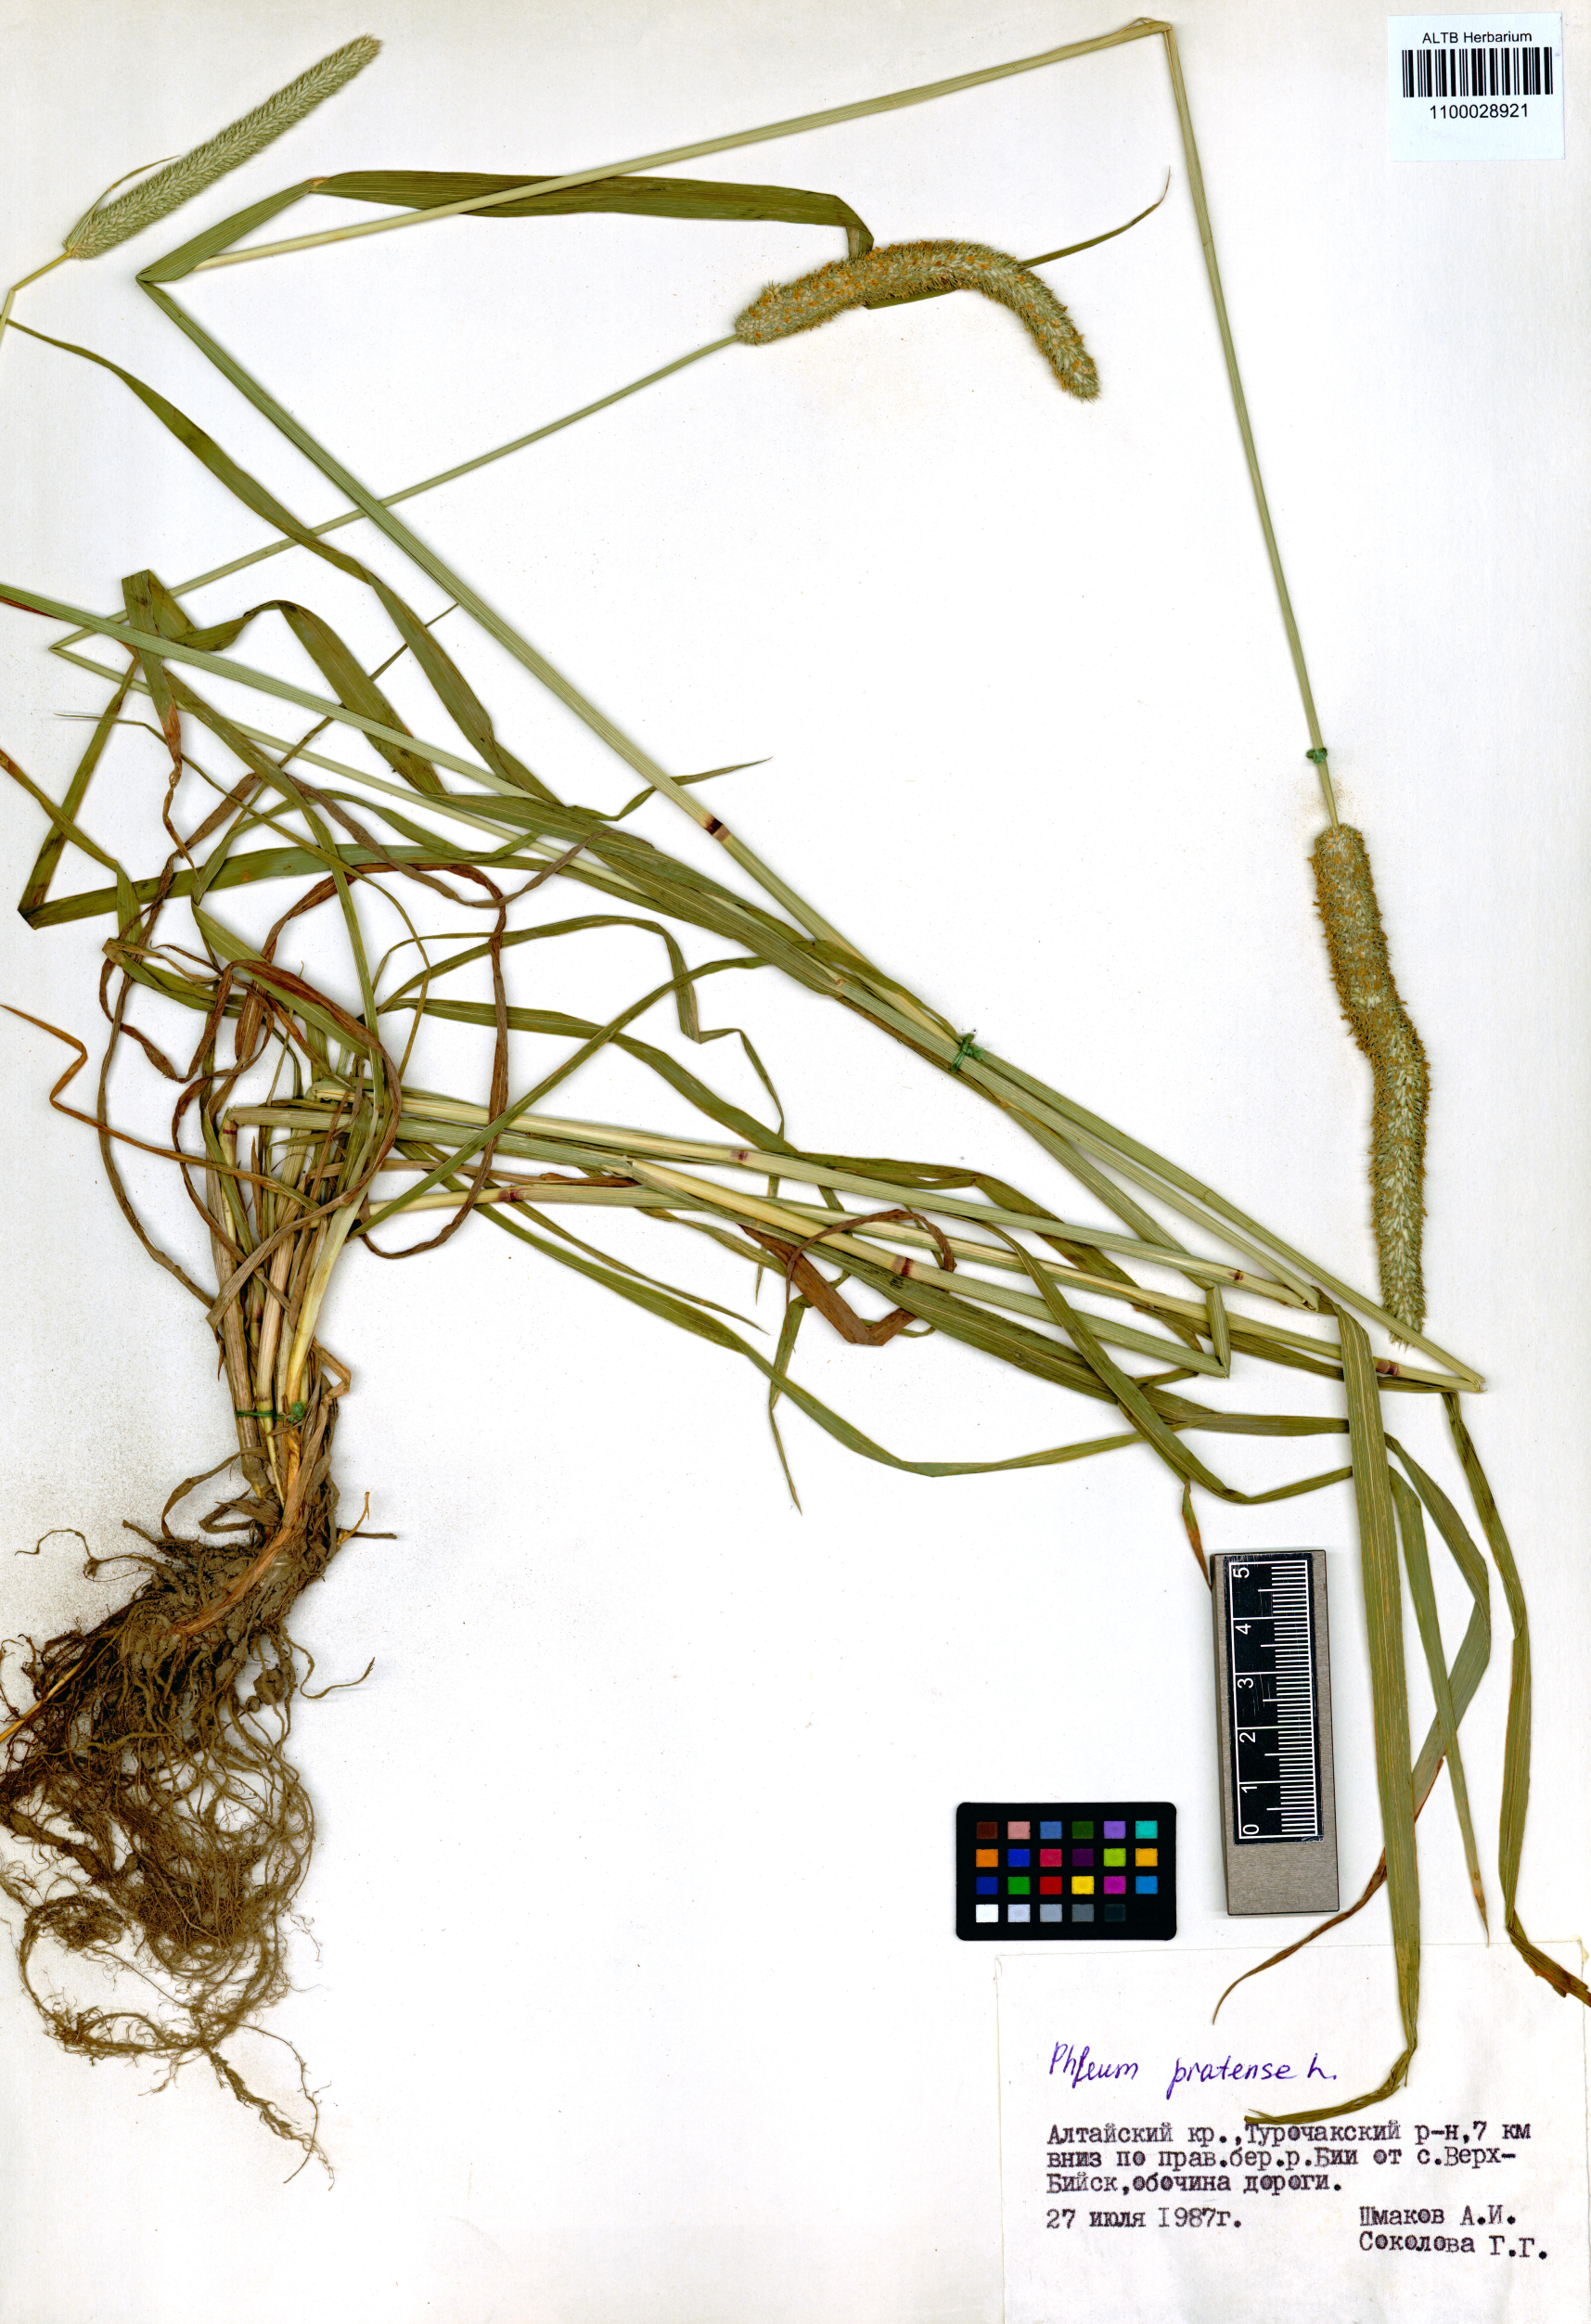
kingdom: Plantae
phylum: Tracheophyta
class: Liliopsida
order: Poales
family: Poaceae
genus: Phleum
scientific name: Phleum pratense
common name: Timothy grass
